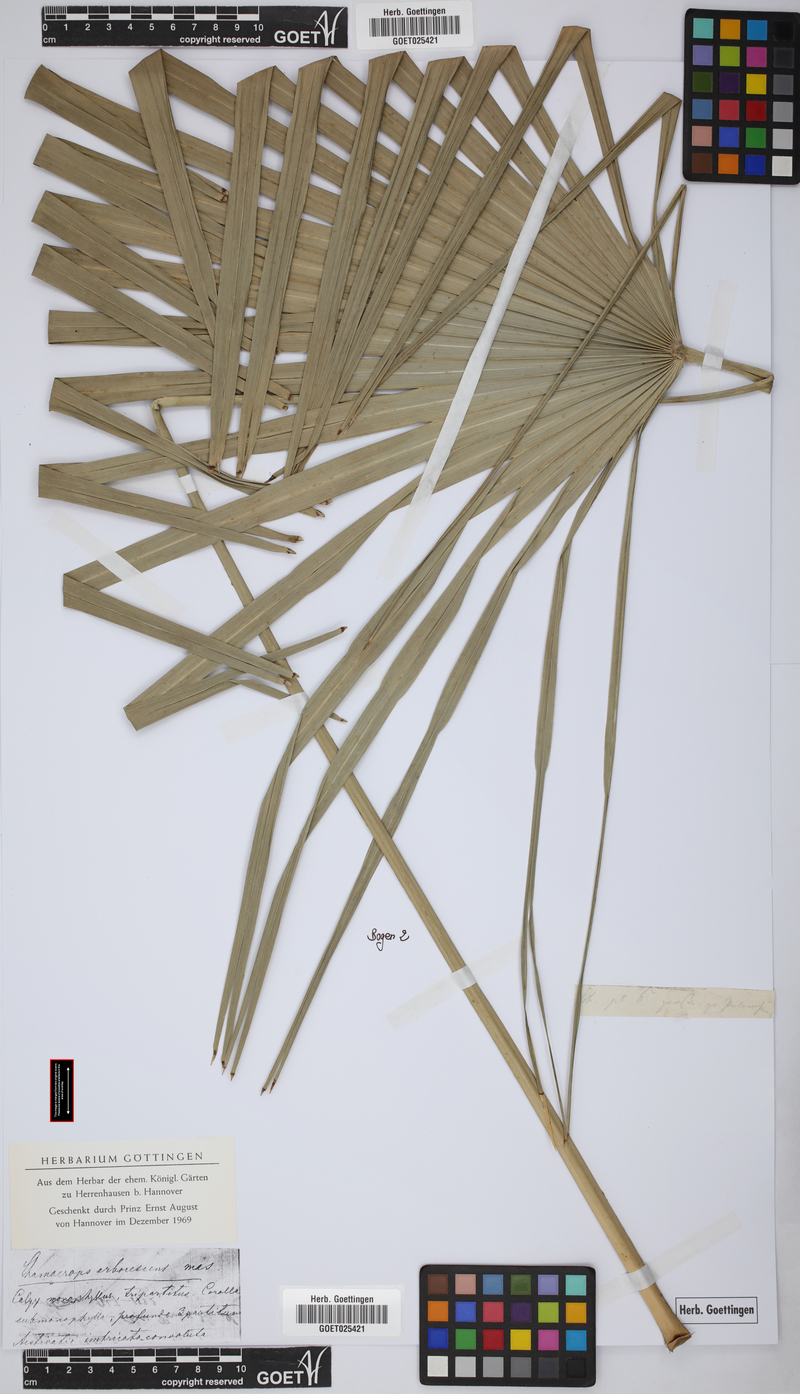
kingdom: Plantae
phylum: Tracheophyta
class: Liliopsida
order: Arecales
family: Arecaceae
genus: Chamaerops
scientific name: Chamaerops humilis
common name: Dwarf fan palm
